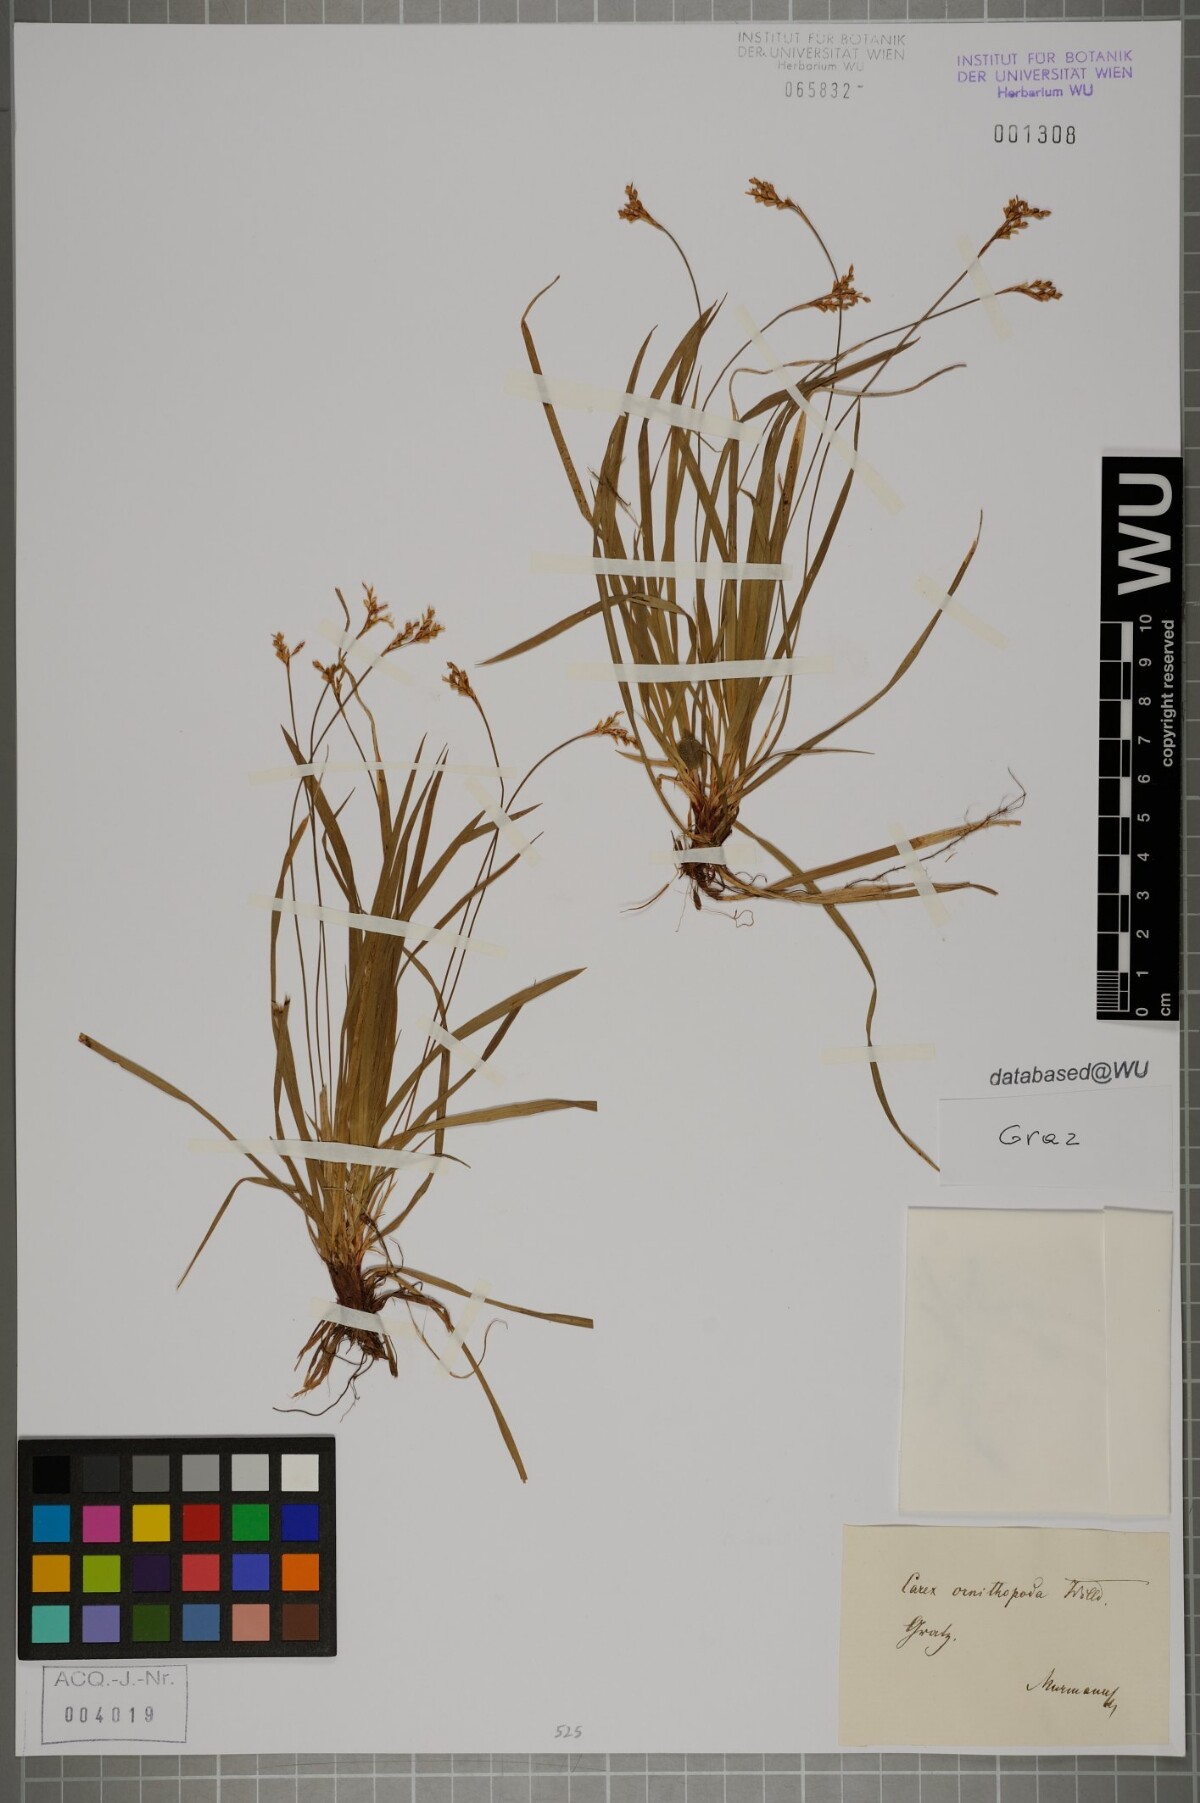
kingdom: Plantae
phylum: Tracheophyta
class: Liliopsida
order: Poales
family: Cyperaceae
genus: Carex
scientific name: Carex ornithopoda
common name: Bird's-foot sedge
